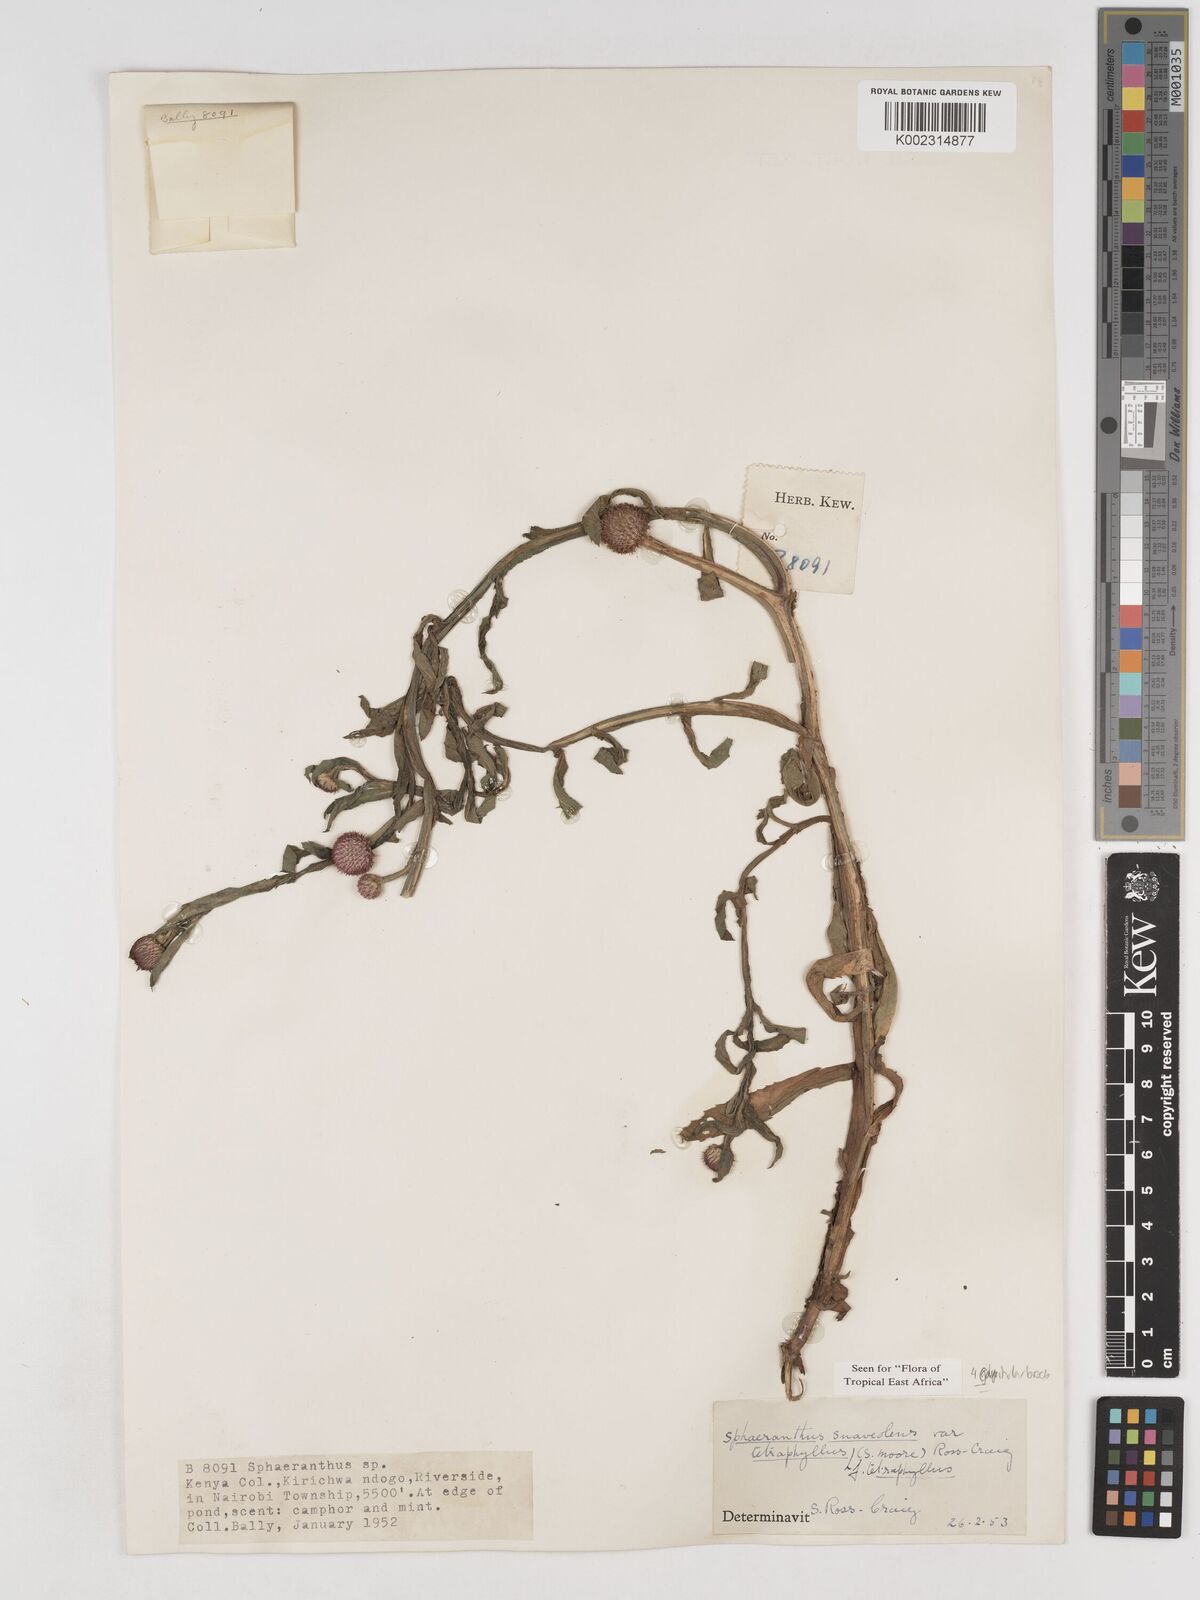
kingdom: Plantae
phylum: Tracheophyta
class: Magnoliopsida
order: Asterales
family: Asteraceae
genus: Sphaeranthus
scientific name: Sphaeranthus suaveolens
